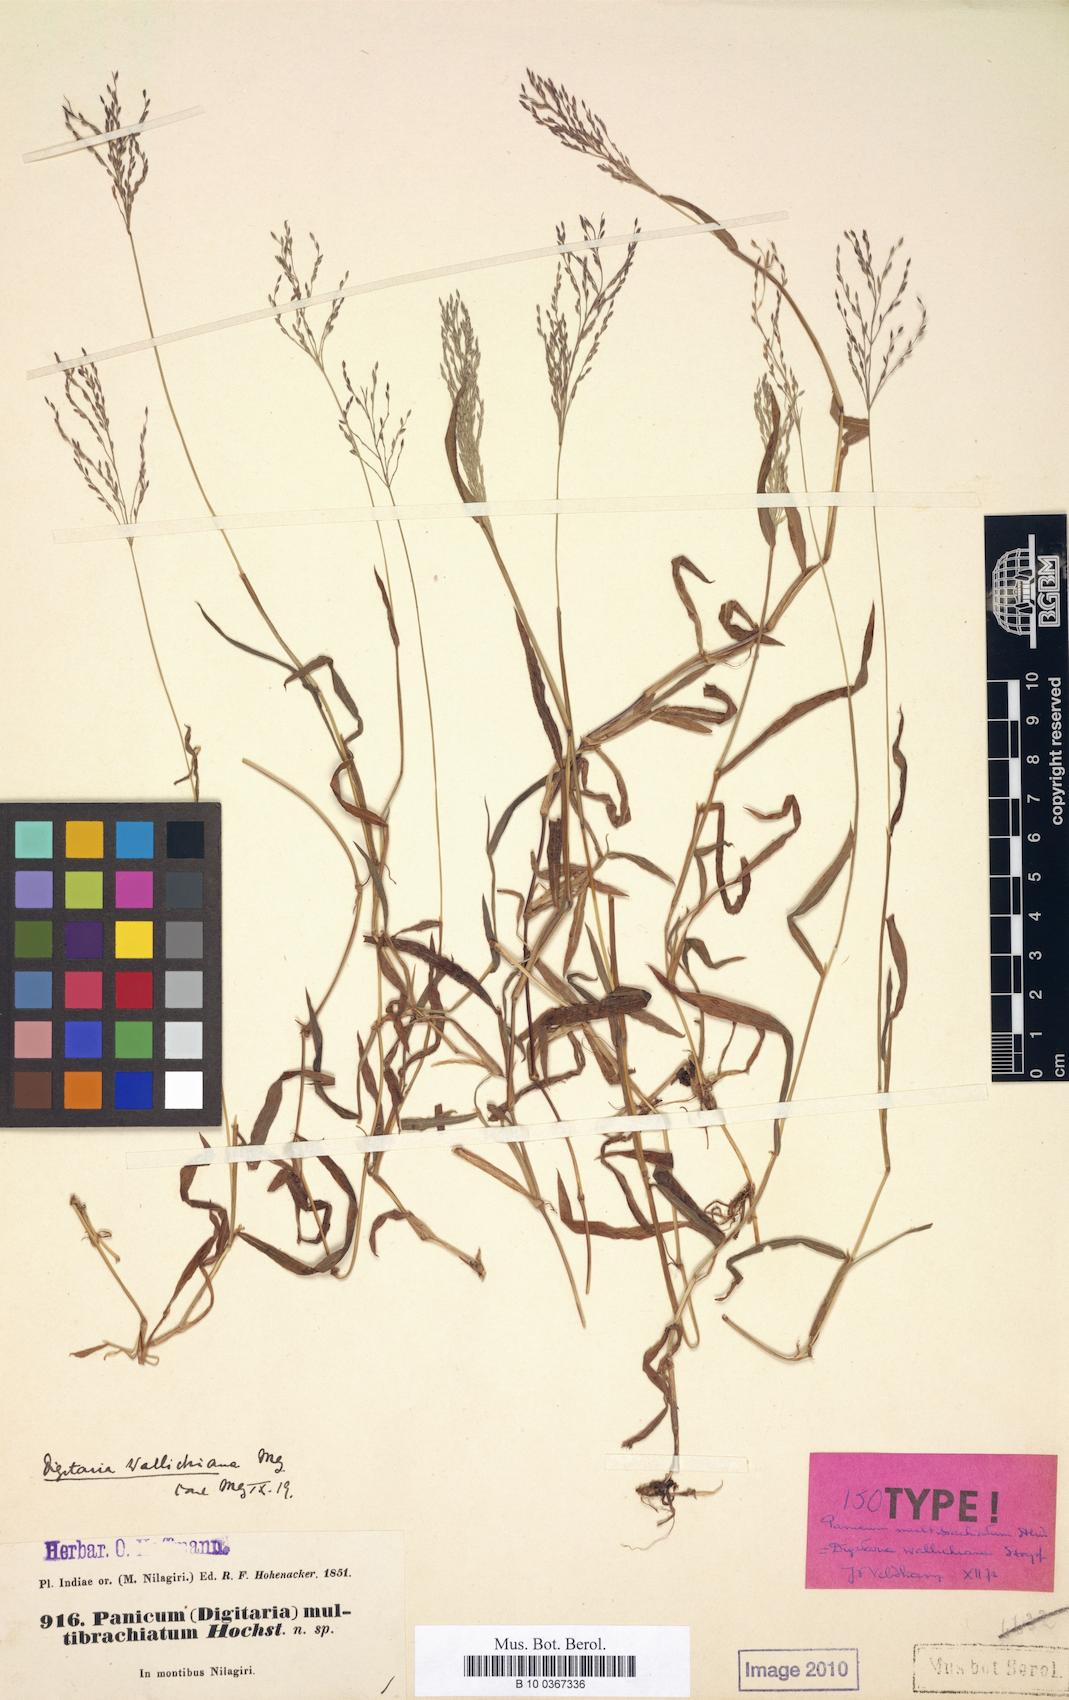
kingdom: Plantae
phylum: Tracheophyta
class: Liliopsida
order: Poales
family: Poaceae
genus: Digitaria
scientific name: Digitaria wallichiana
